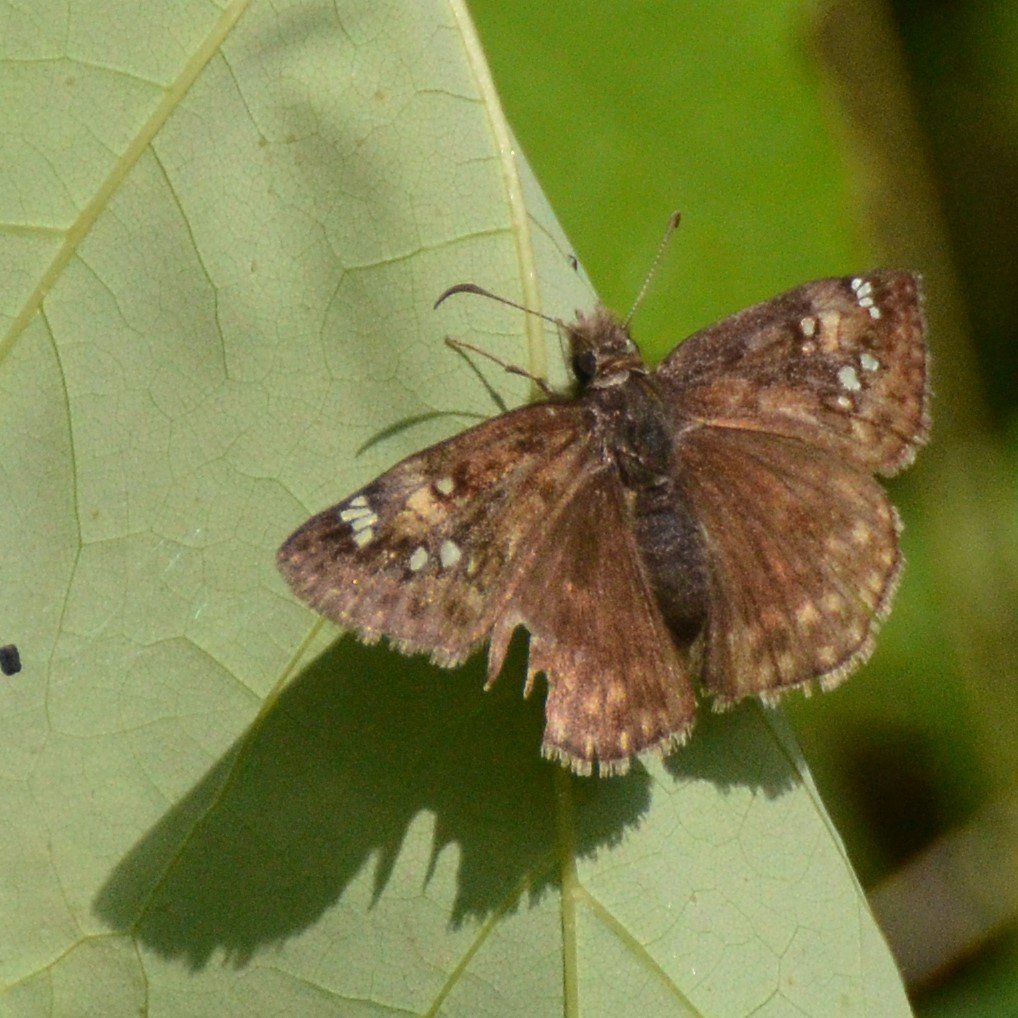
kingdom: Animalia
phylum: Arthropoda
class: Insecta
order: Lepidoptera
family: Hesperiidae
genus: Gesta
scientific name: Gesta
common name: Juvenal's Duskywing
